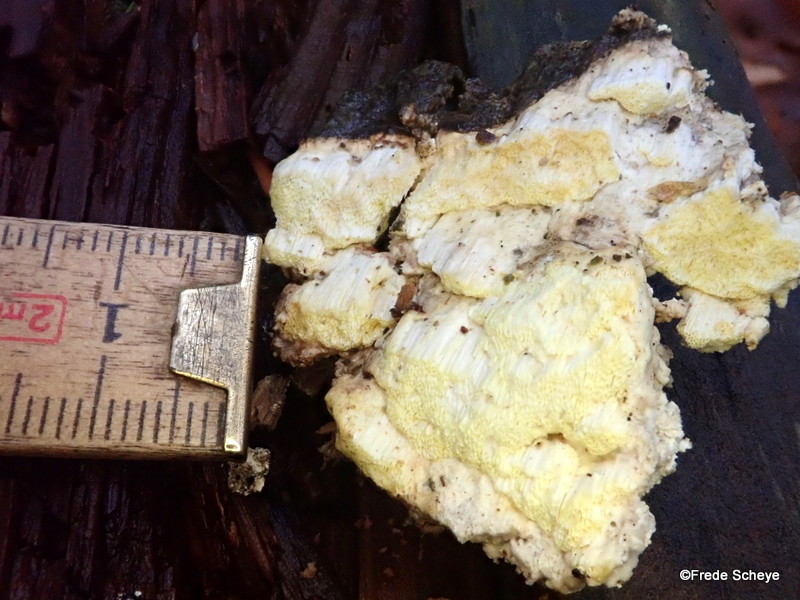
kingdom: Fungi
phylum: Basidiomycota
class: Agaricomycetes
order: Polyporales
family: Fomitopsidaceae
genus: Daedalea
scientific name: Daedalea xantha
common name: gul sejporesvamp
